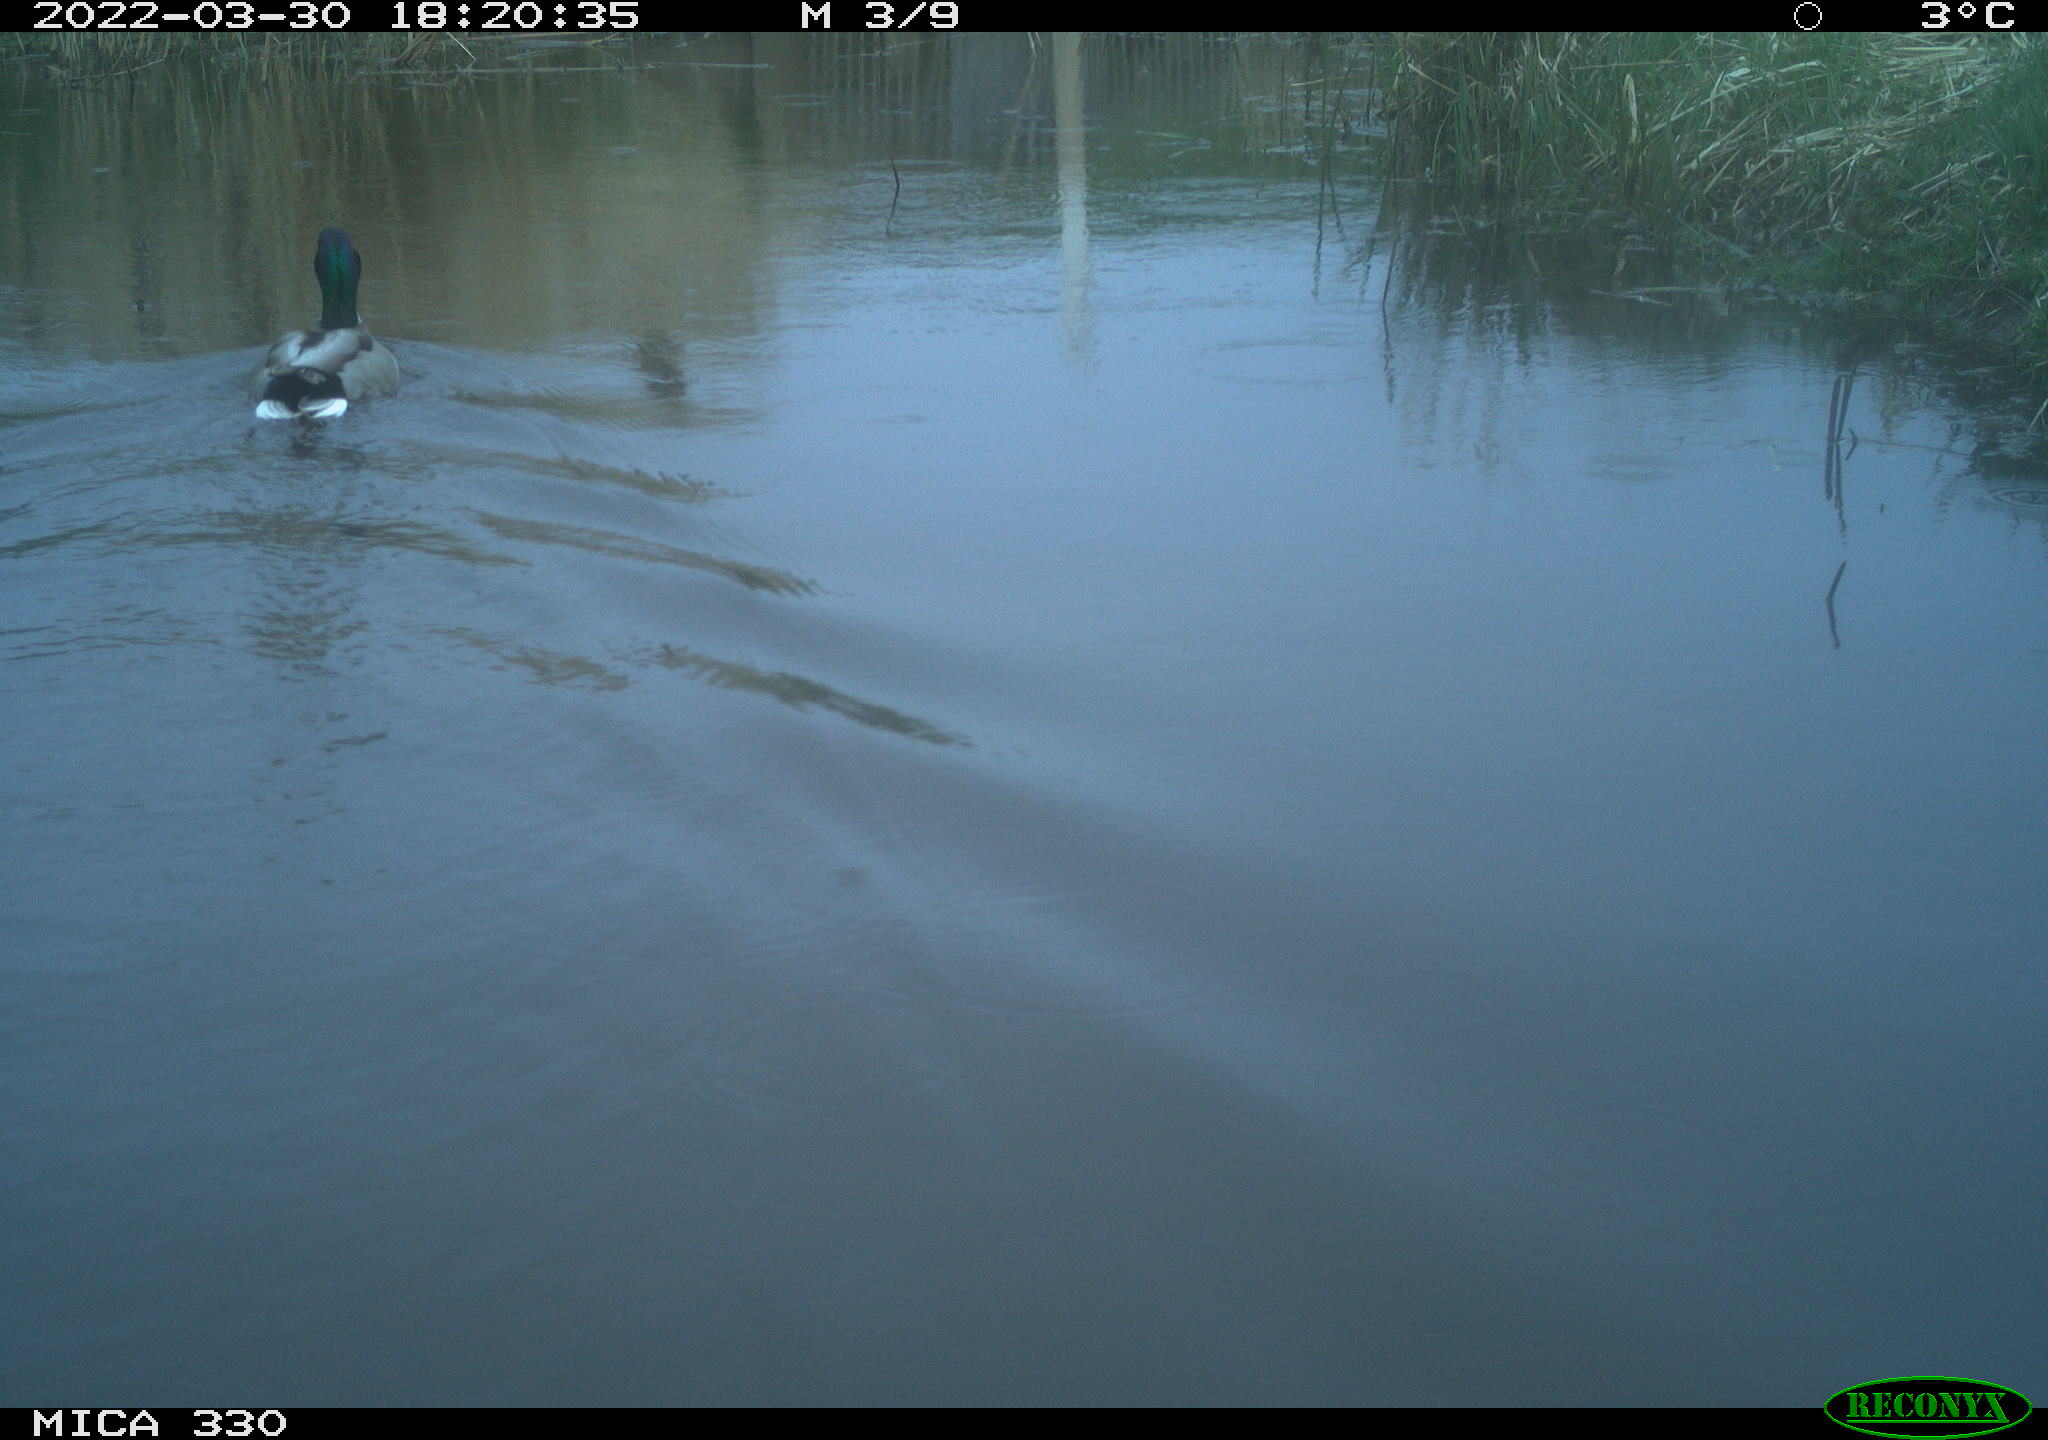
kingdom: Animalia
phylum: Chordata
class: Aves
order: Anseriformes
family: Anatidae
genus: Anas
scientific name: Anas platyrhynchos
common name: Mallard
